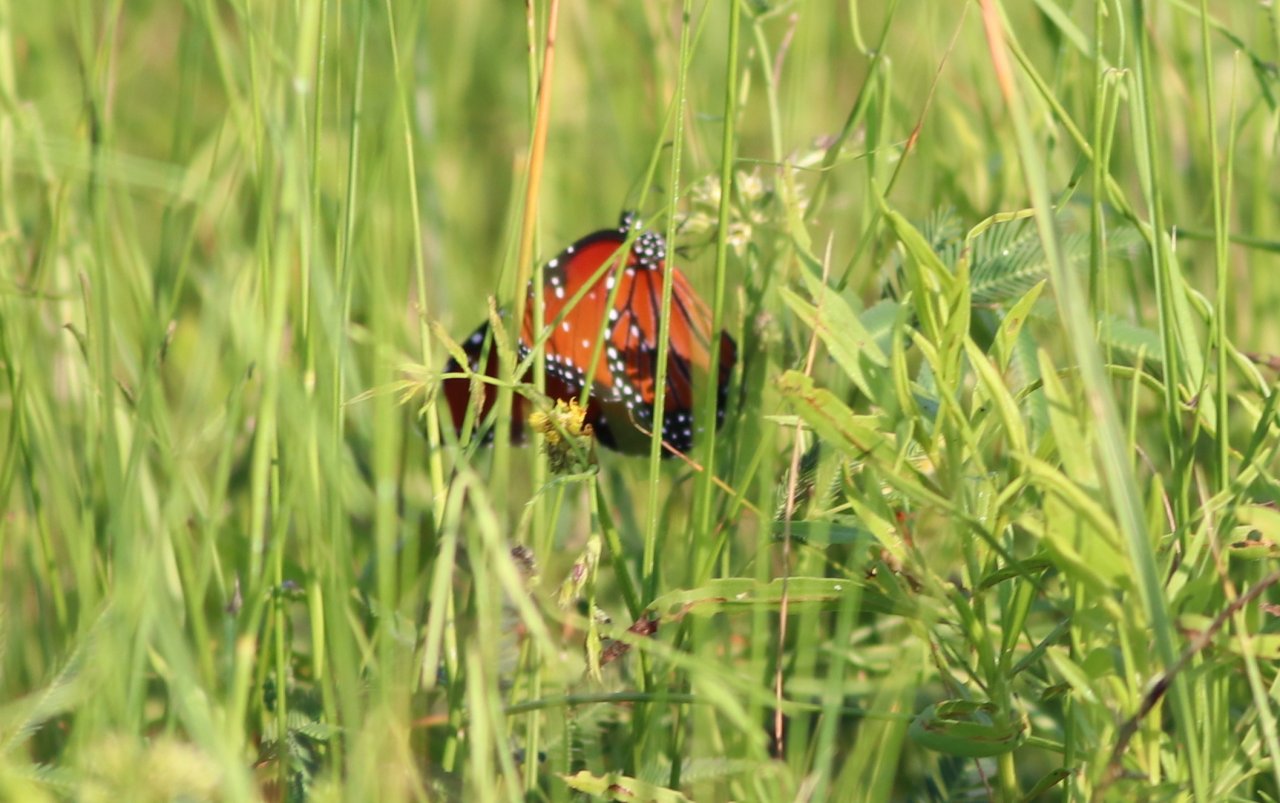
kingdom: Animalia
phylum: Arthropoda
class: Insecta
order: Lepidoptera
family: Nymphalidae
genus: Danaus
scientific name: Danaus gilippus
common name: Queen
